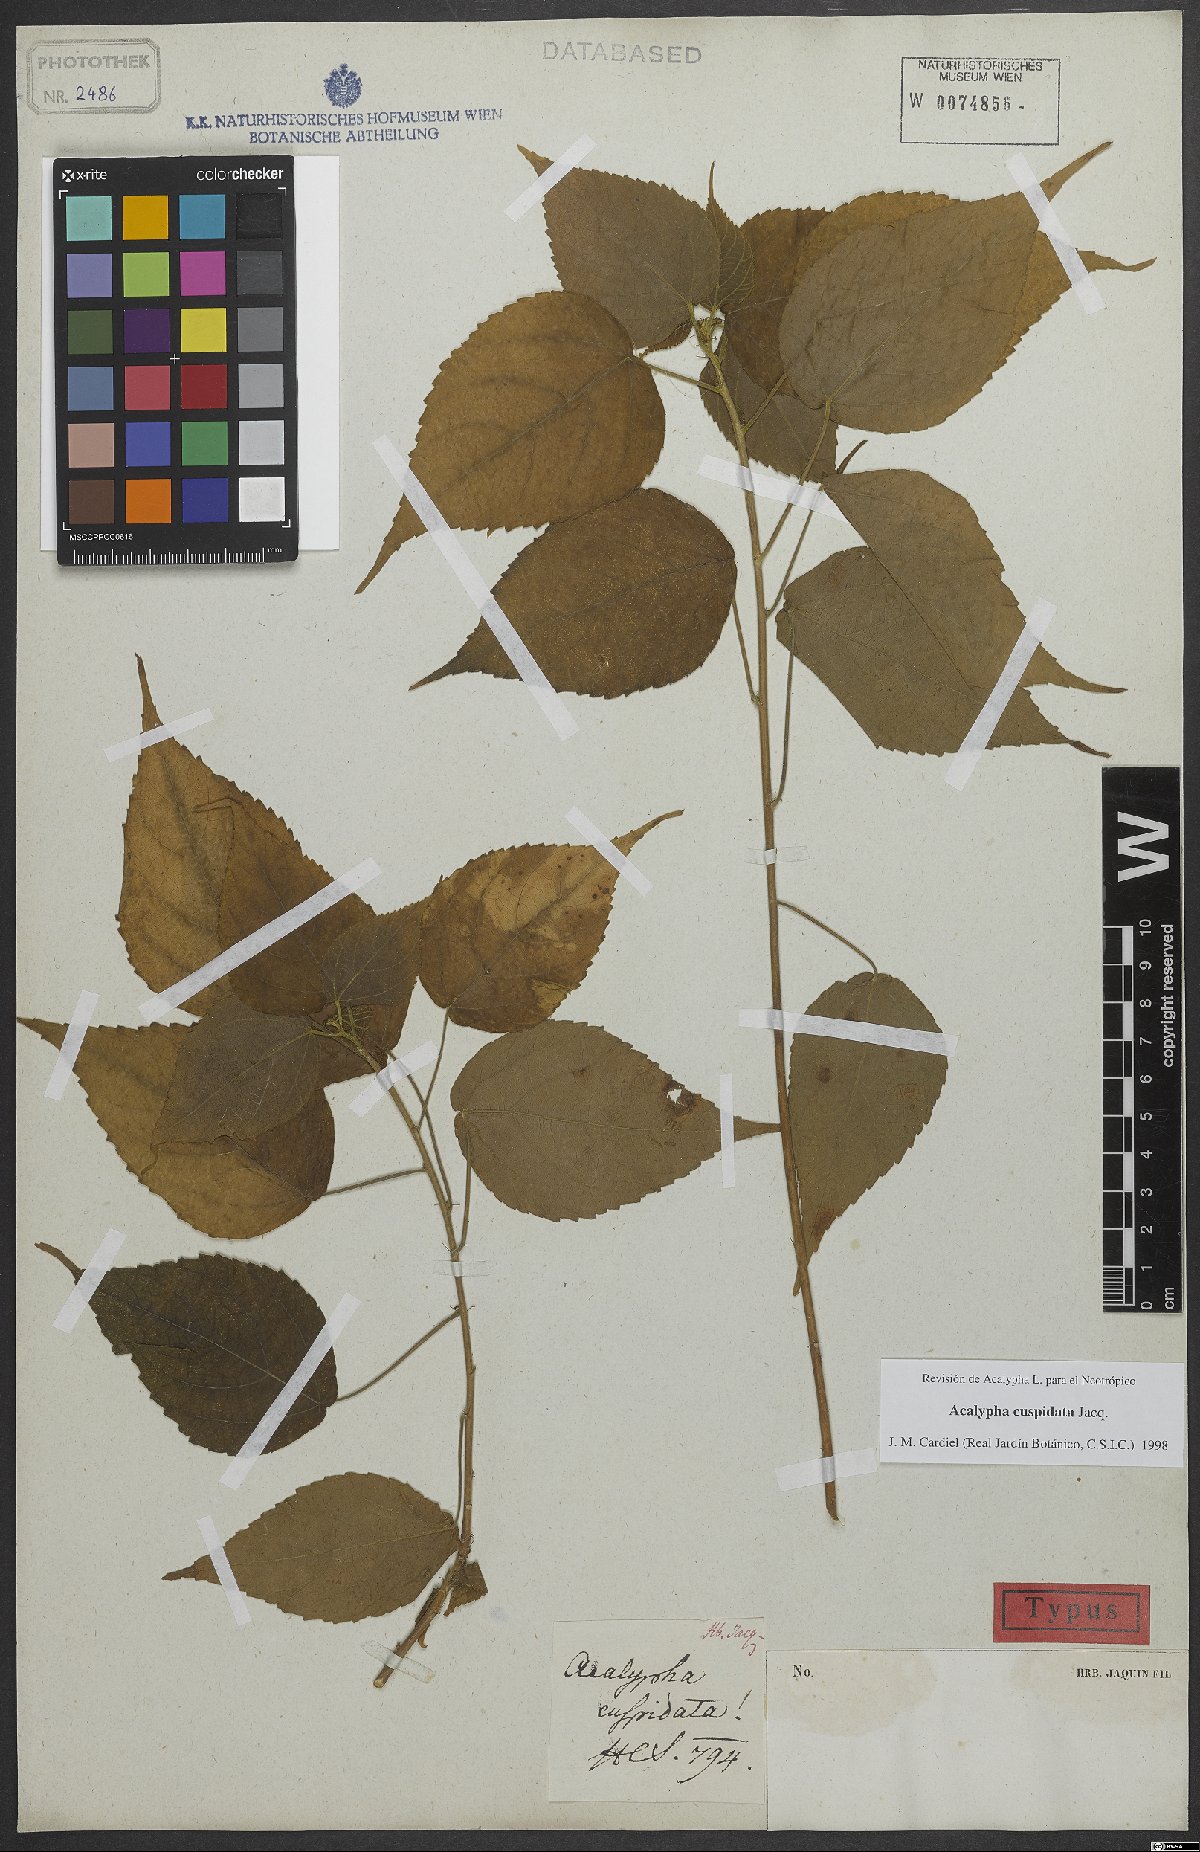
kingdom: Plantae
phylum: Tracheophyta
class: Magnoliopsida
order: Malpighiales
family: Euphorbiaceae
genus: Acalypha
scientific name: Acalypha cuspidata
